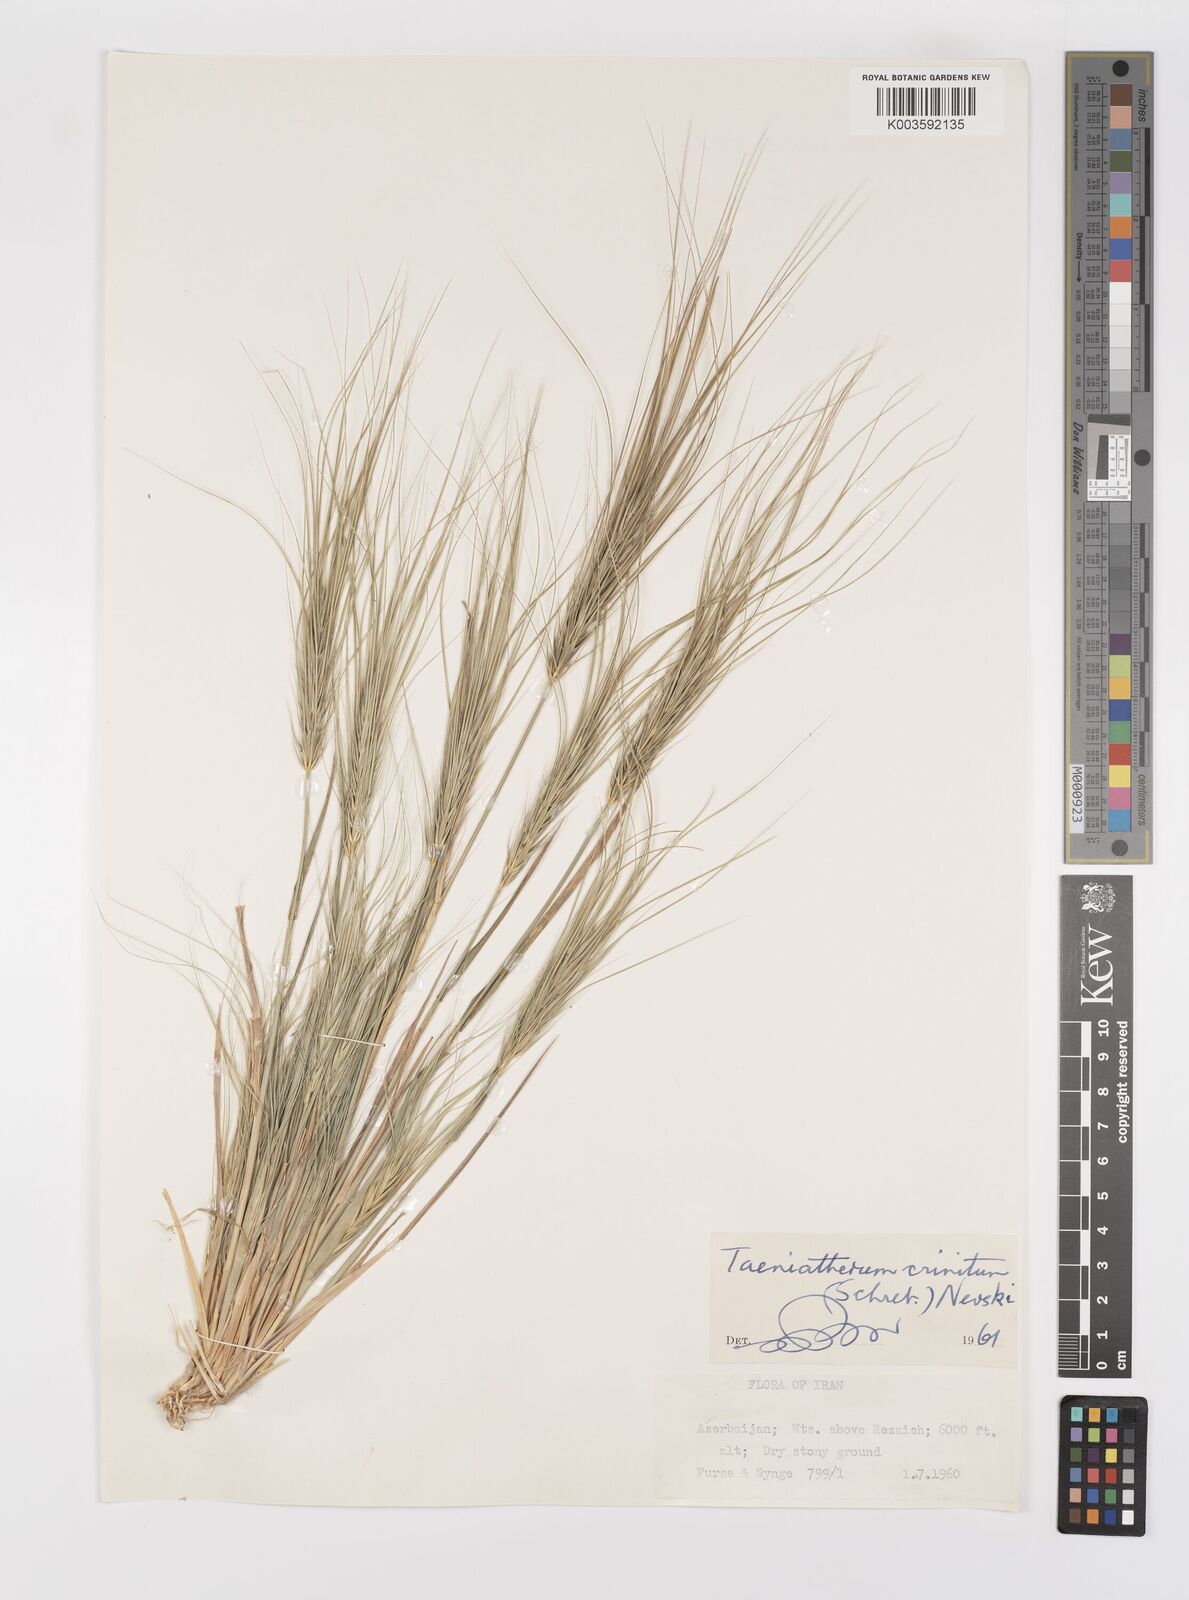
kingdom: Plantae
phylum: Tracheophyta
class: Liliopsida
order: Poales
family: Poaceae
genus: Taeniatherum
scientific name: Taeniatherum caput-medusae
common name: Medusahead
